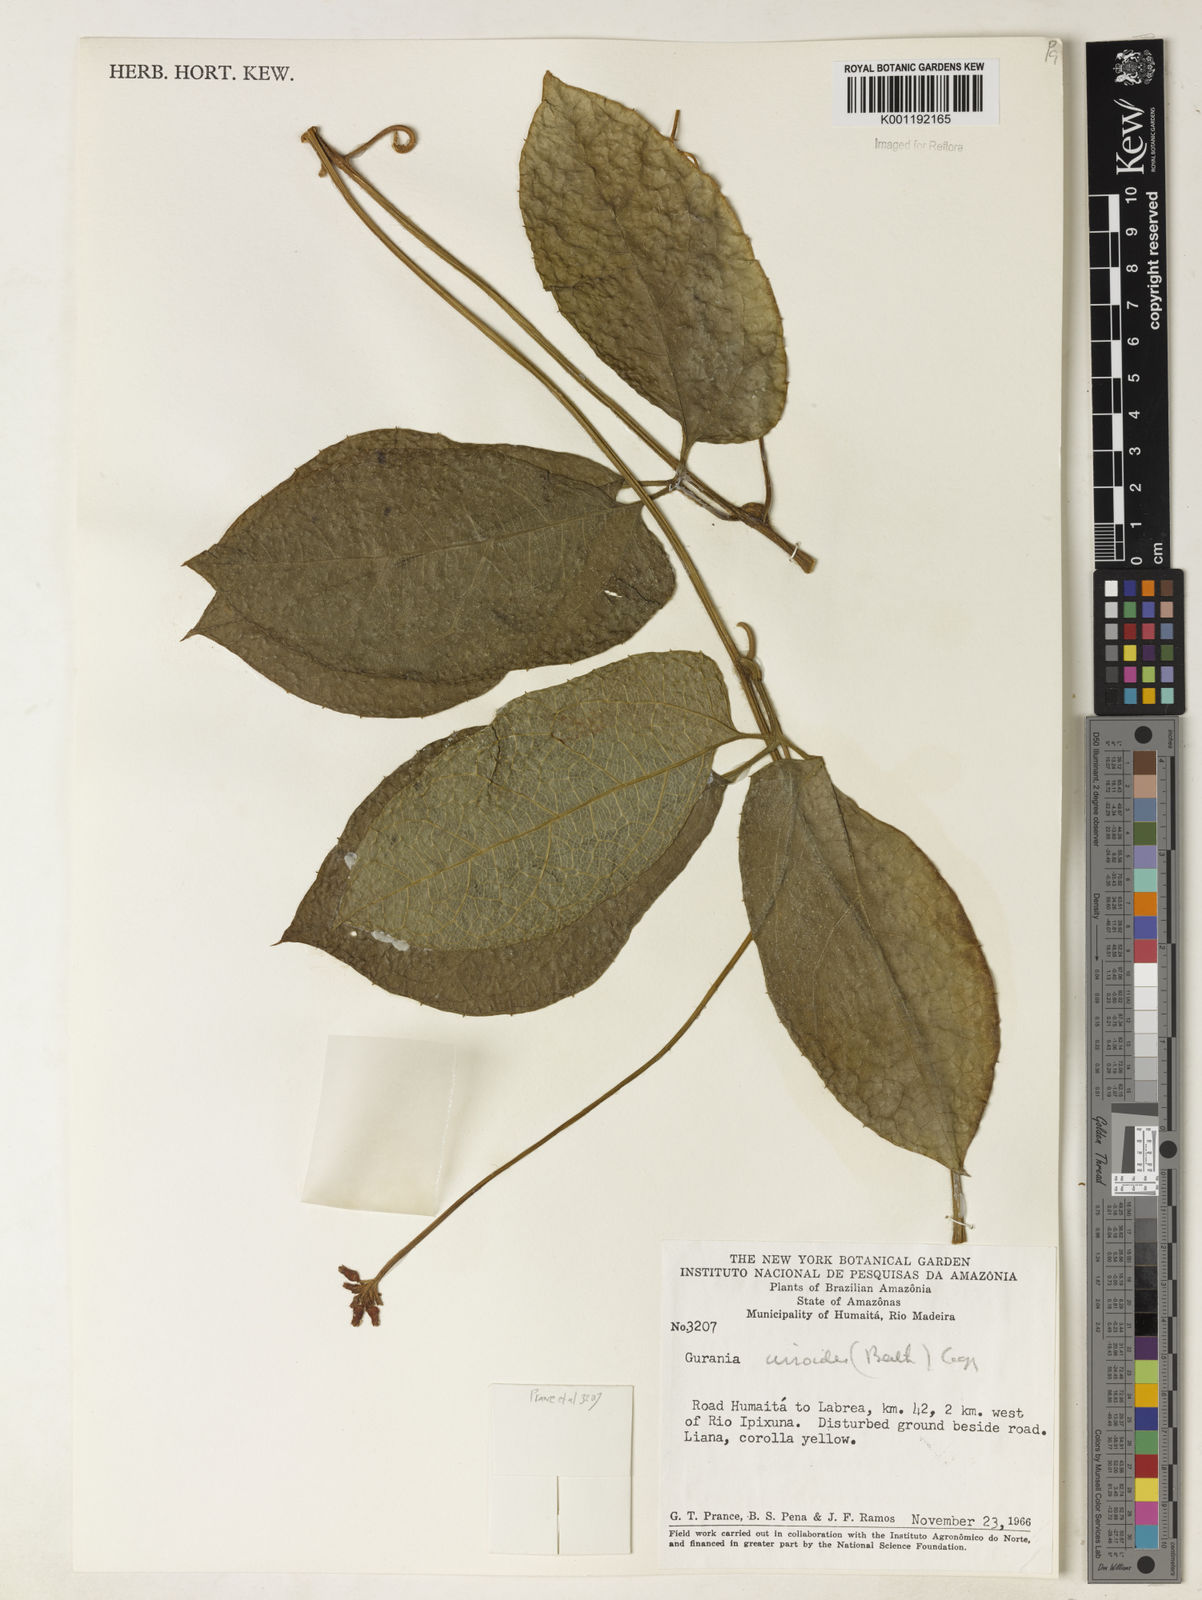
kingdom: Plantae
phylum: Tracheophyta
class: Magnoliopsida
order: Cucurbitales
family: Cucurbitaceae
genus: Gurania
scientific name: Gurania bignoniacea
